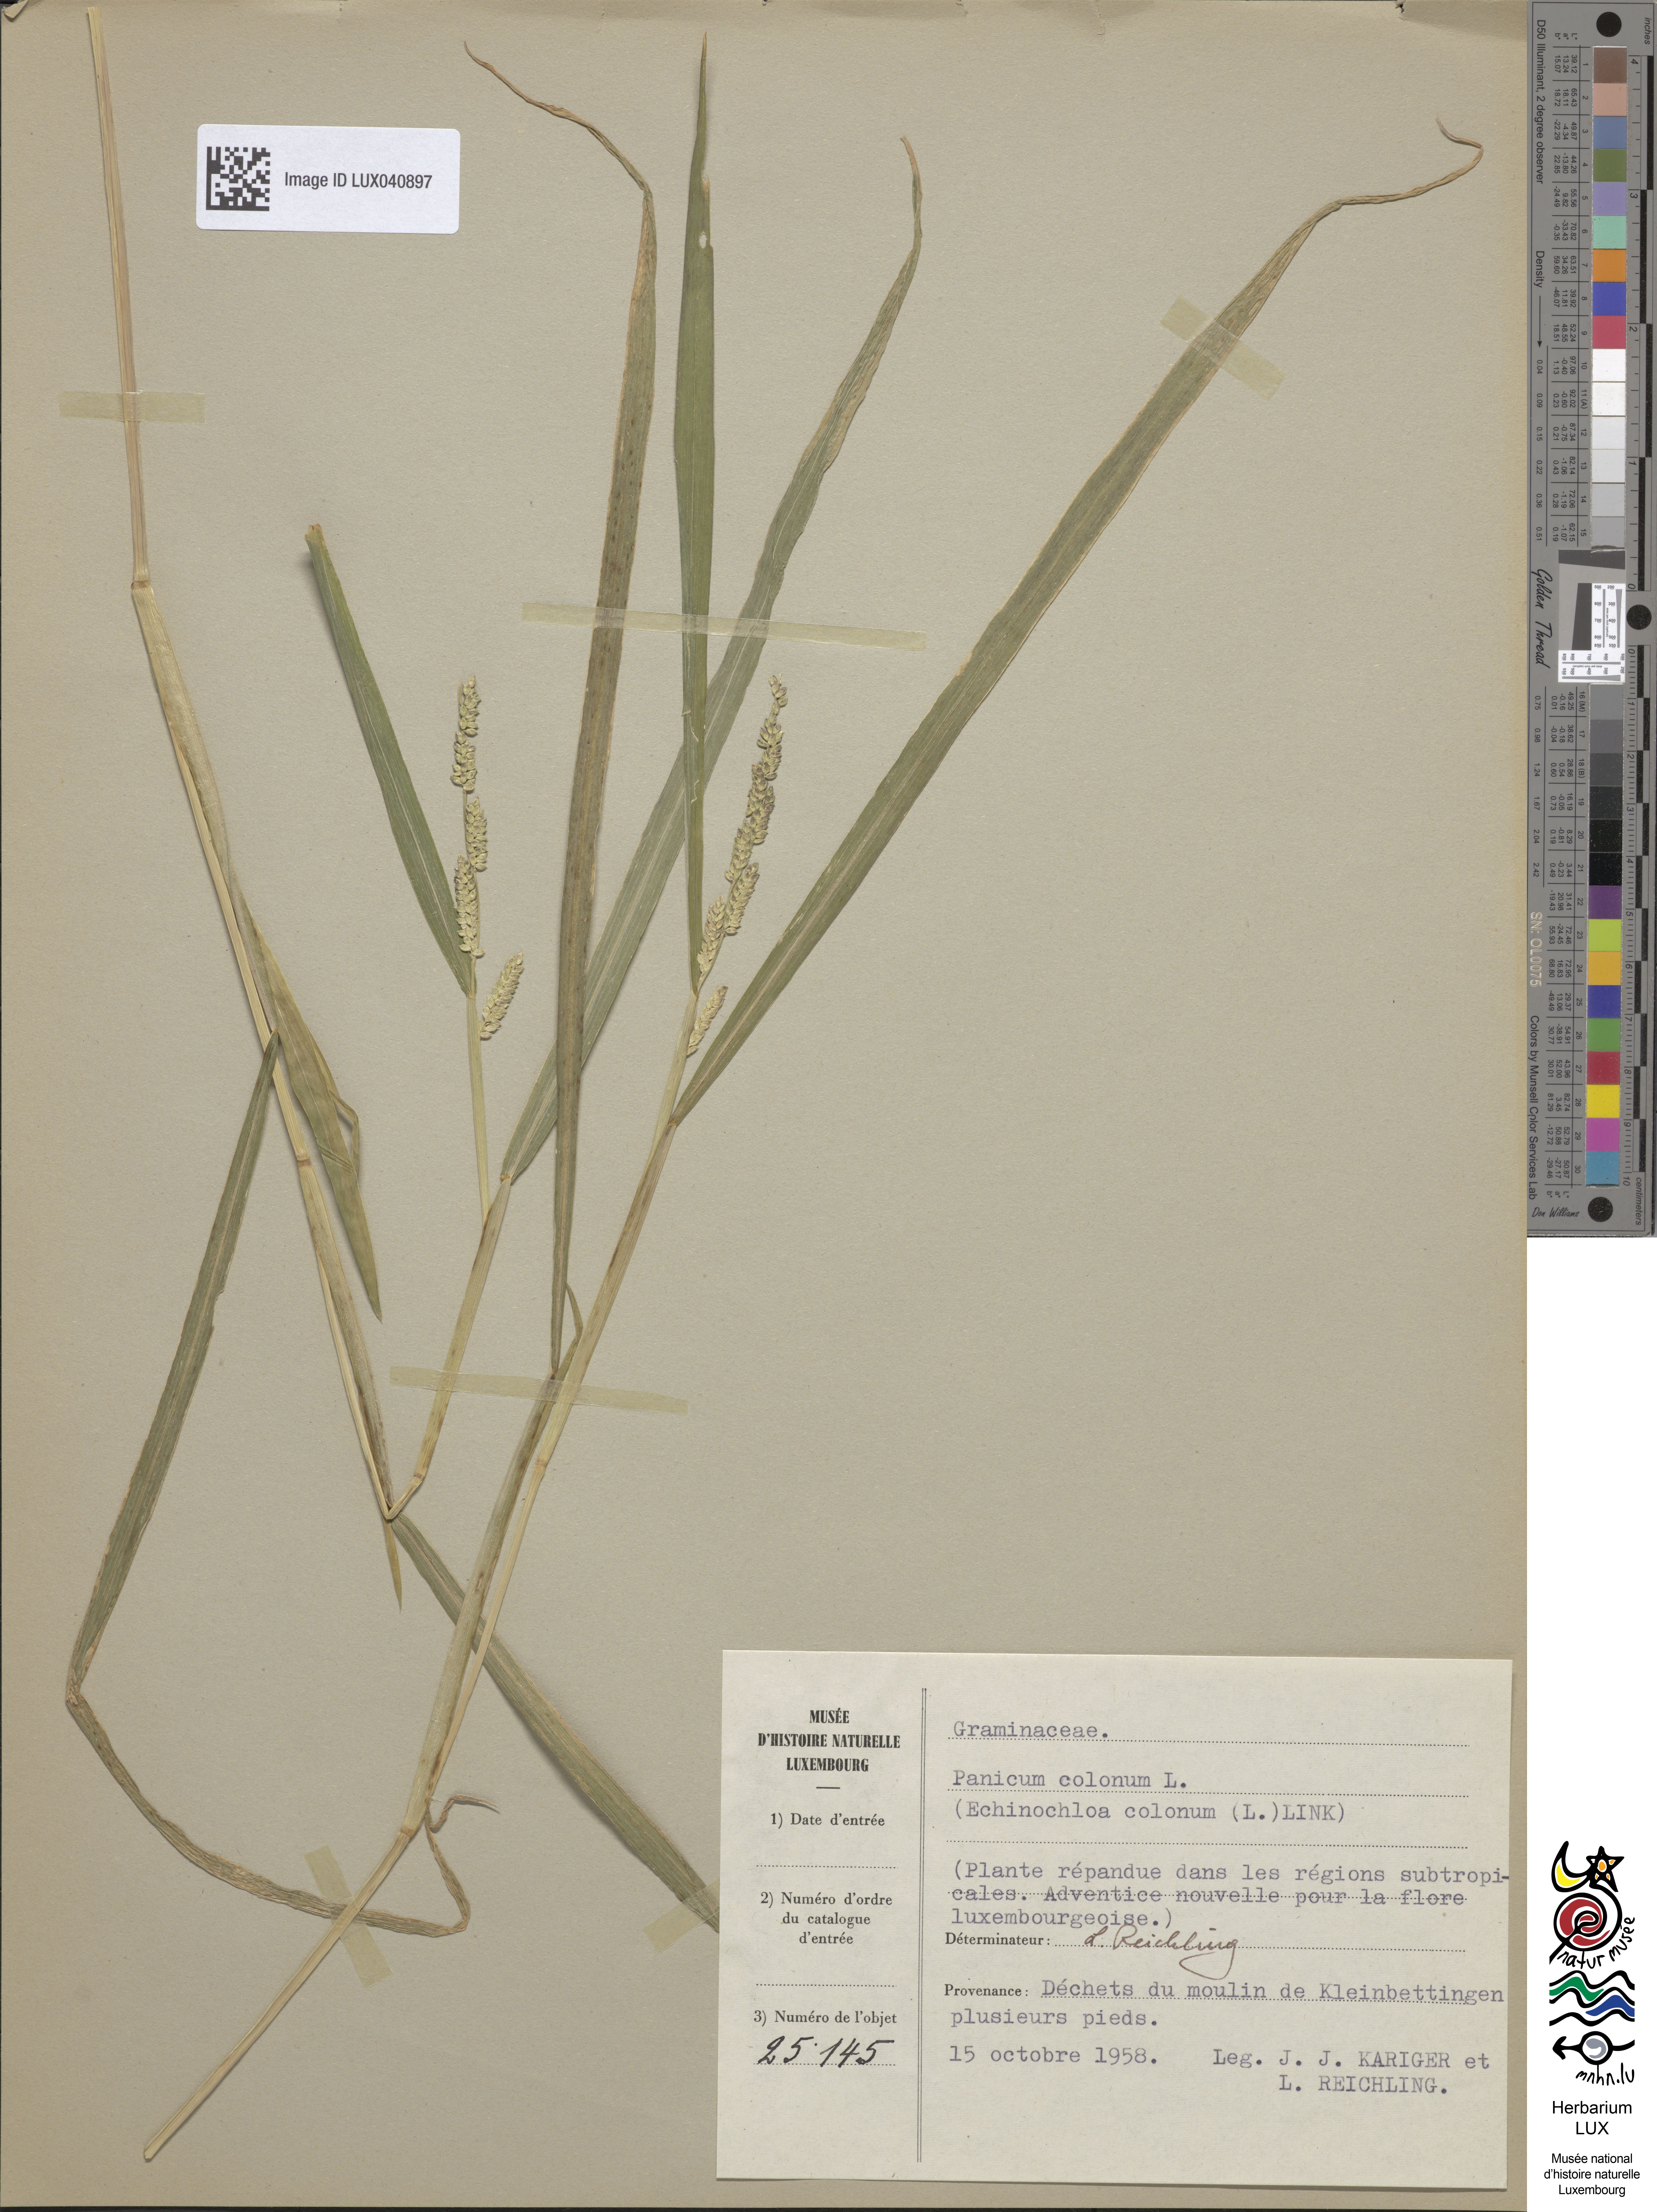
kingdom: Plantae
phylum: Tracheophyta
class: Liliopsida
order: Poales
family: Poaceae
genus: Echinochloa
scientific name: Echinochloa colonum
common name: Jungle rice
